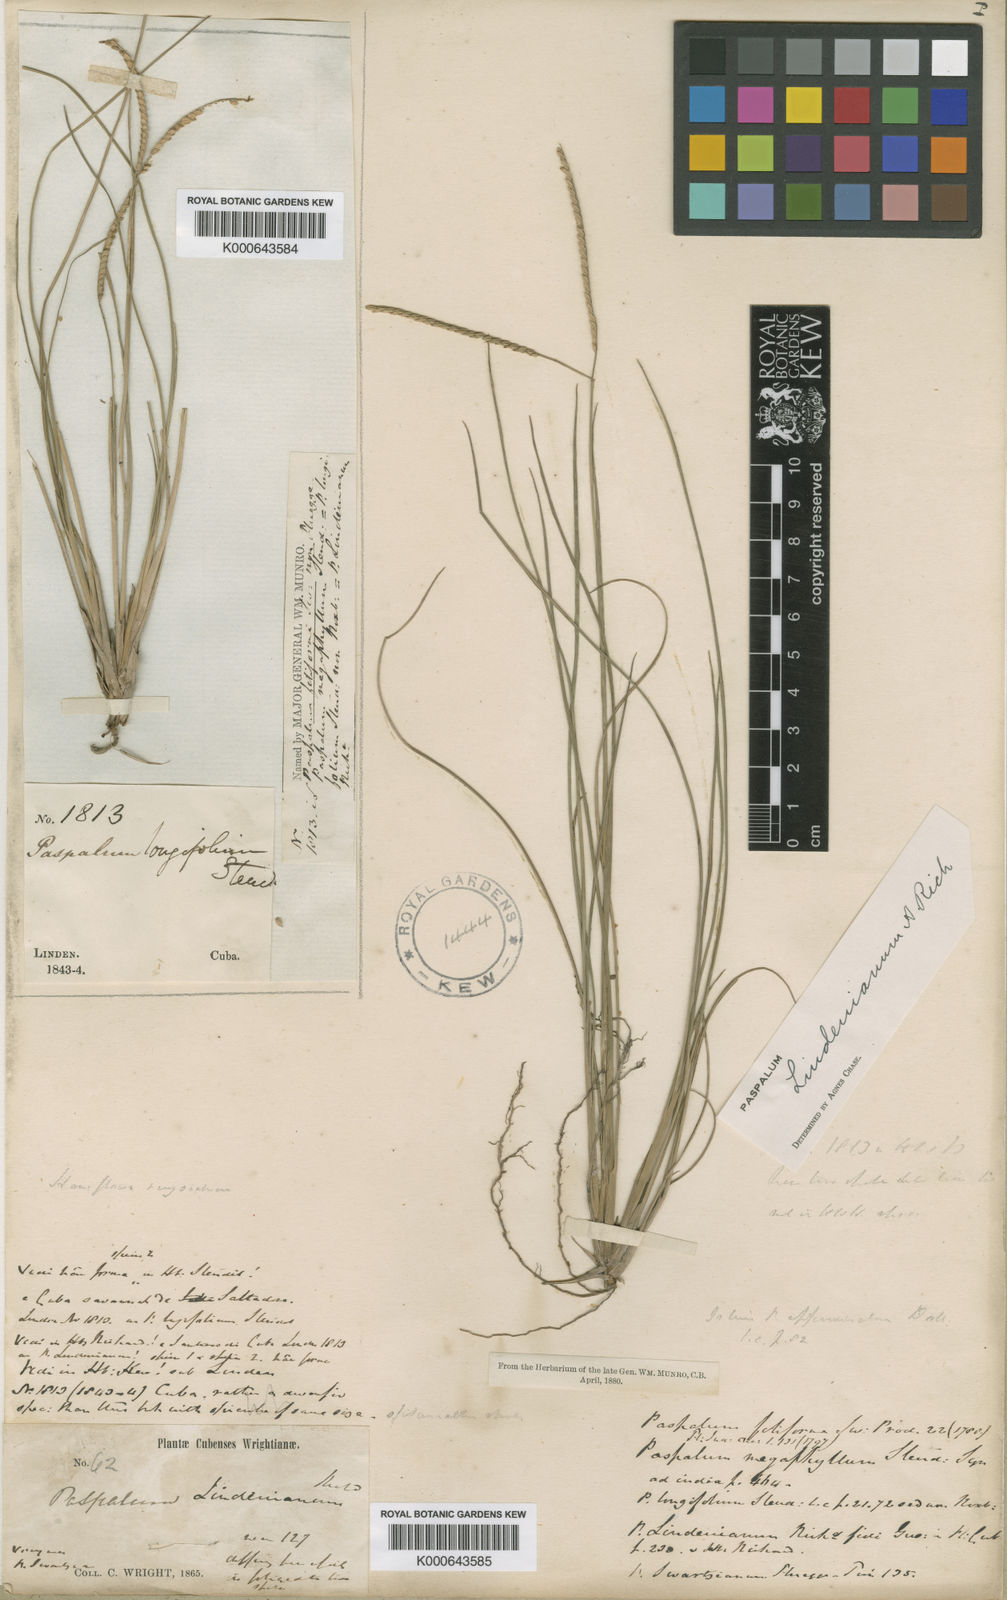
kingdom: Plantae
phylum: Tracheophyta
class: Liliopsida
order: Poales
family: Poaceae
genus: Paspalum
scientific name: Paspalum lindenianum
